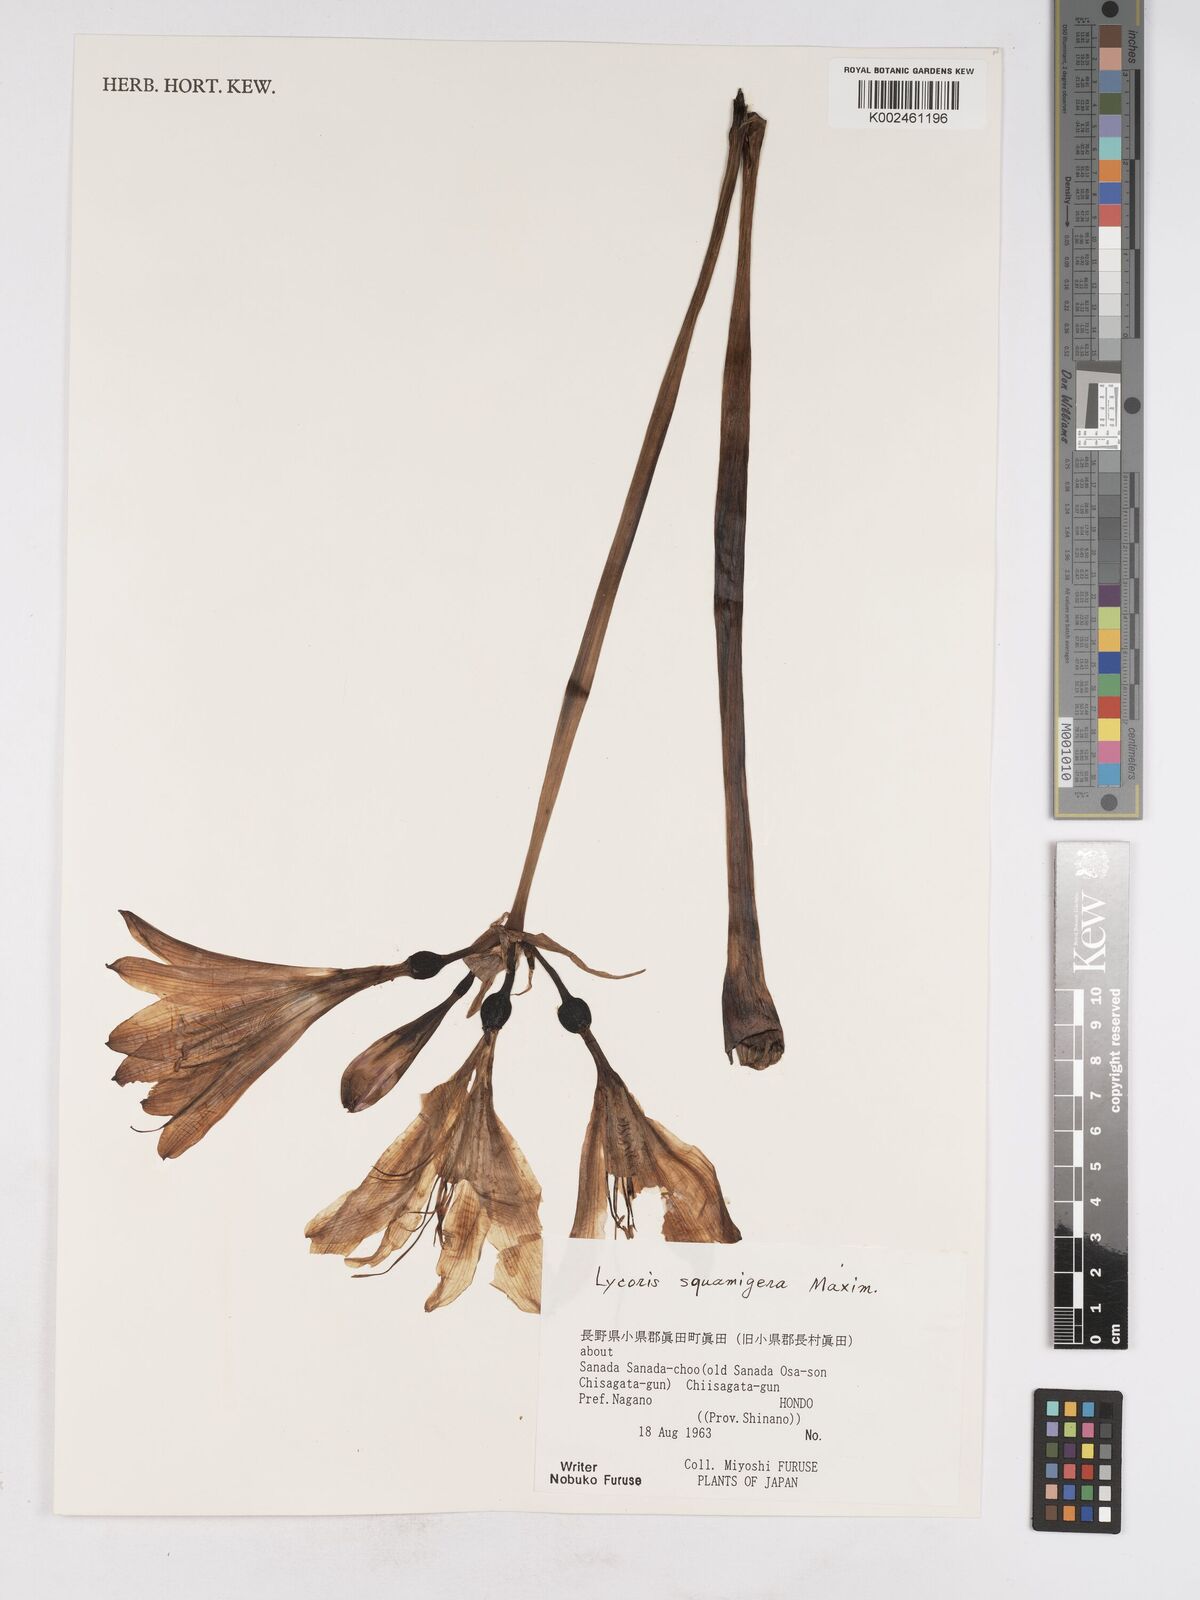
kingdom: Plantae
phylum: Tracheophyta
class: Liliopsida
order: Asparagales
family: Amaryllidaceae
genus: Lycoris
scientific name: Lycoris squamigera
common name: Magic-lily
